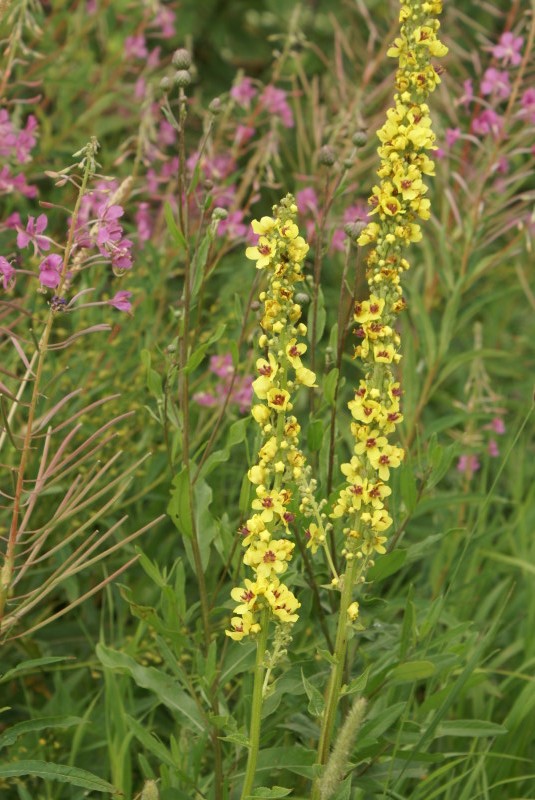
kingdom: Plantae
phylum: Tracheophyta
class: Magnoliopsida
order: Lamiales
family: Scrophulariaceae
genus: Verbascum
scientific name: Verbascum nigrum
